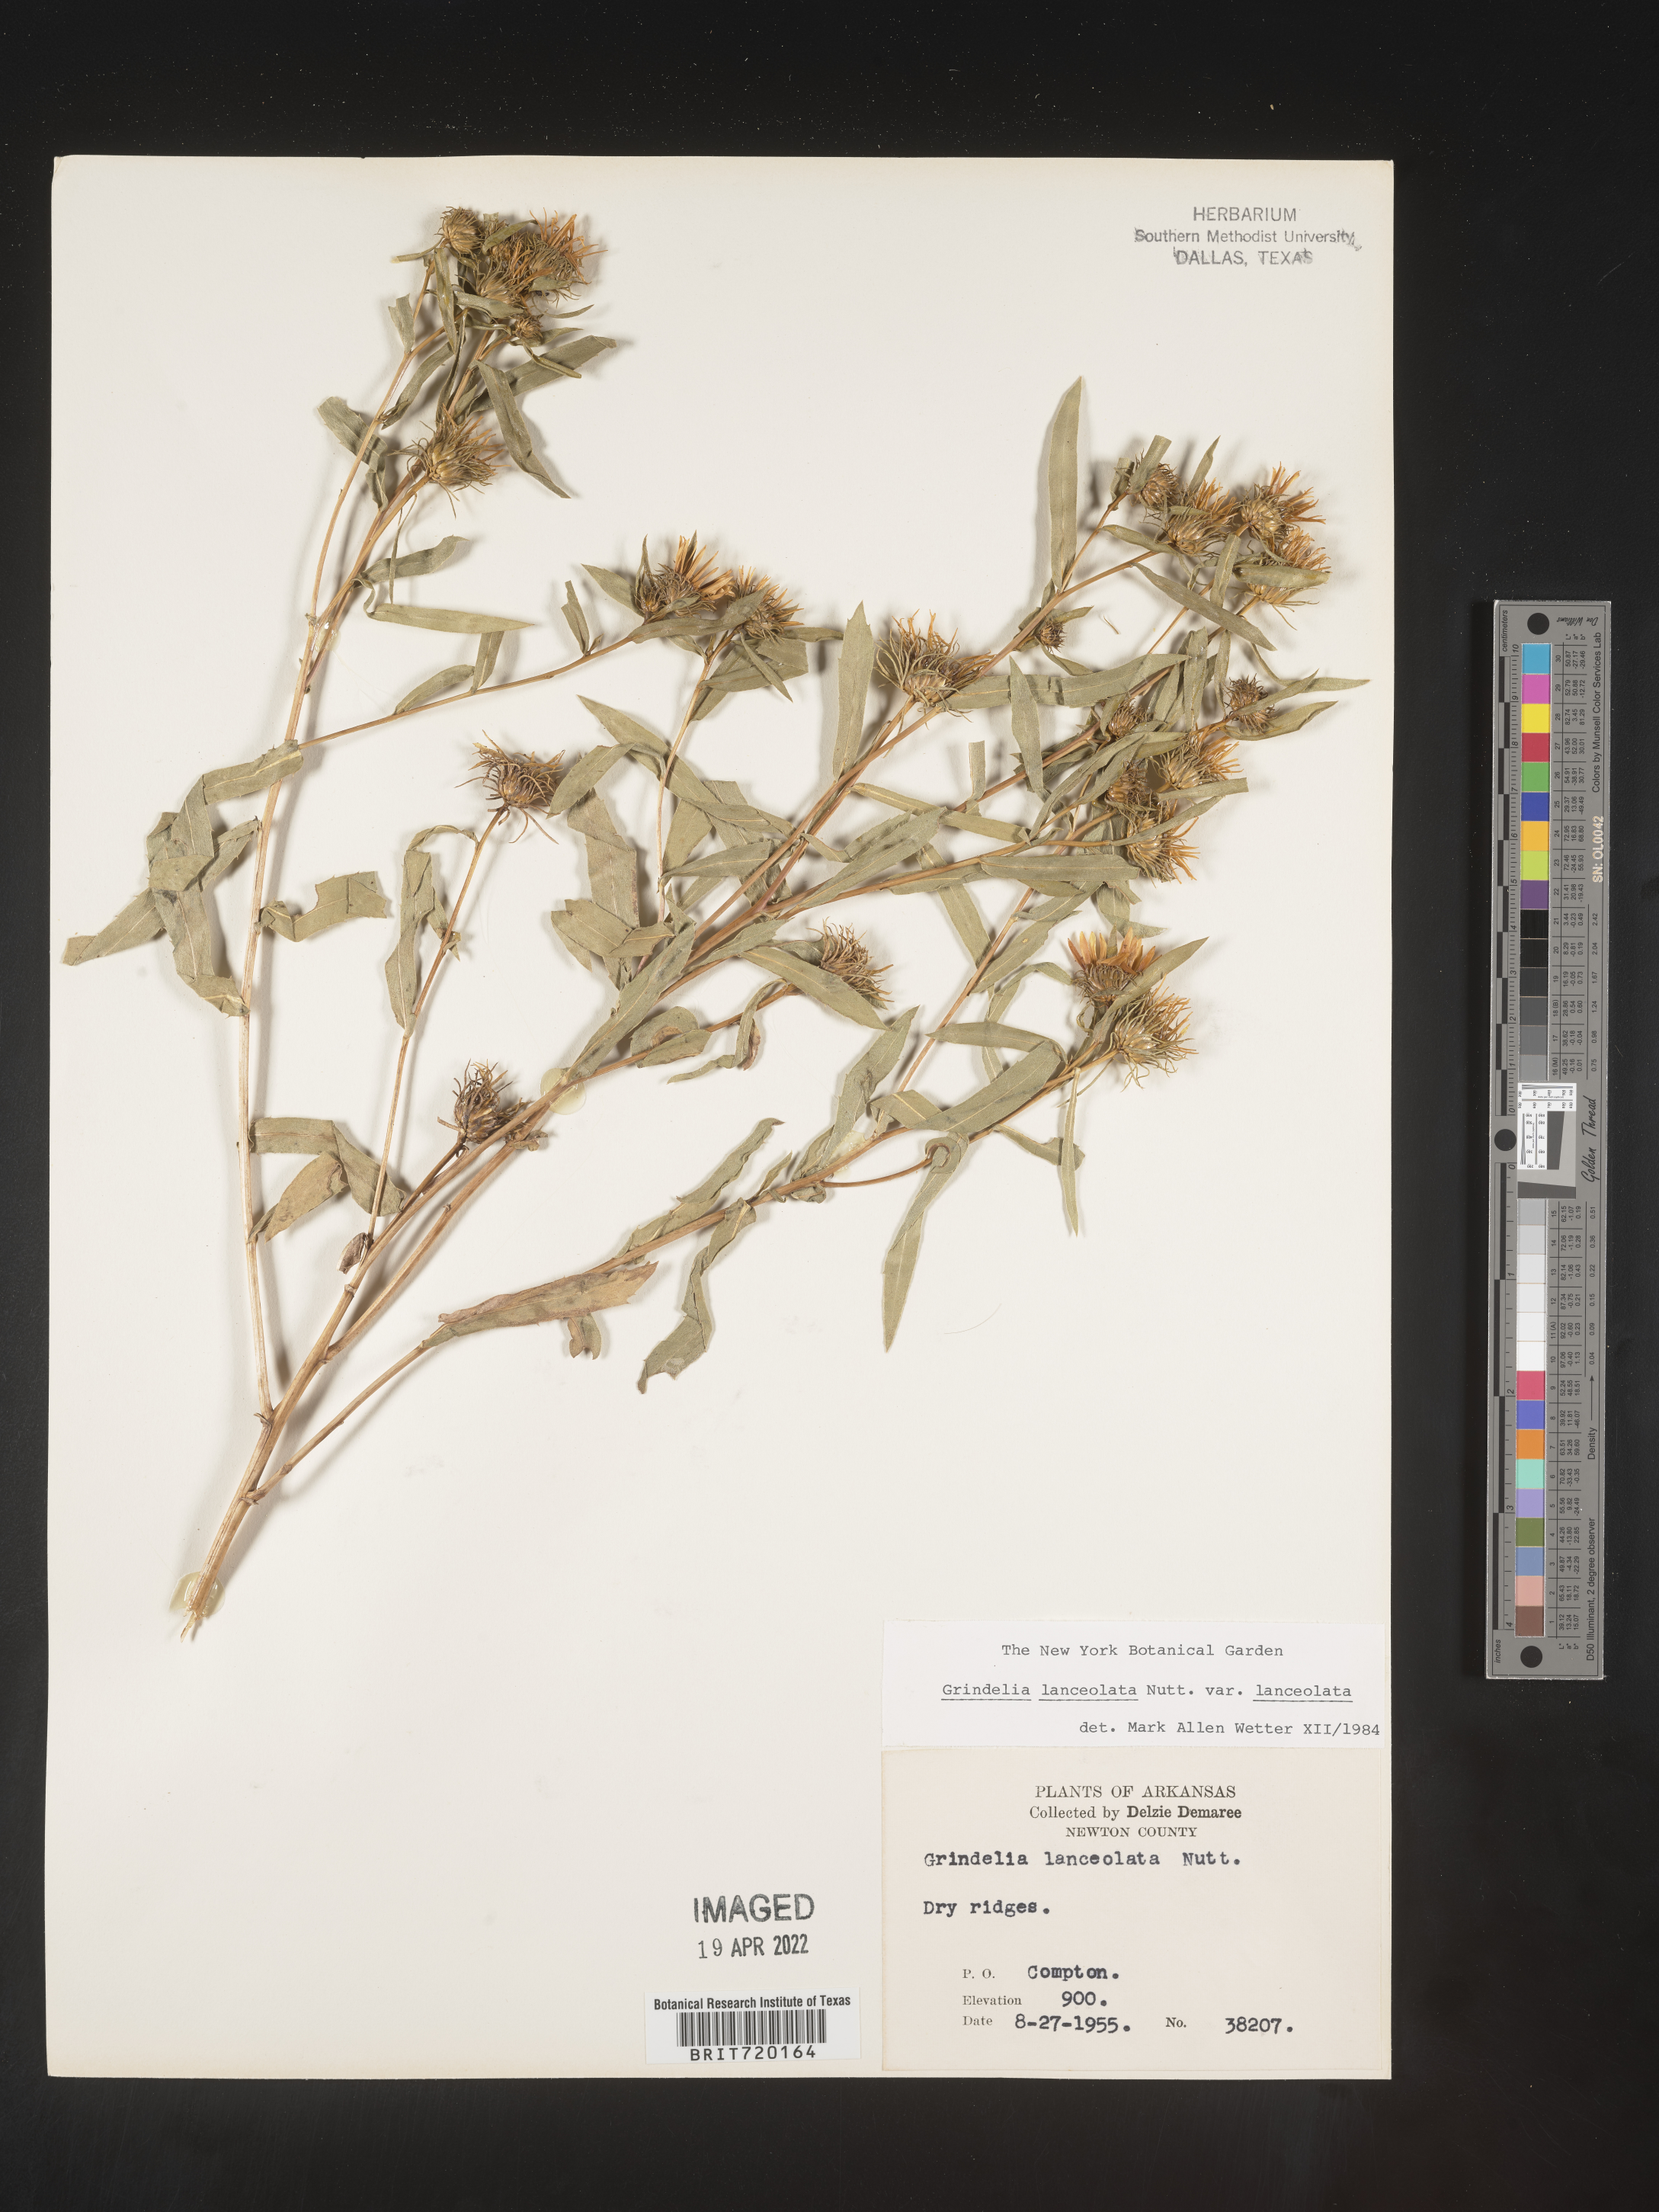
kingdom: Plantae
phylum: Tracheophyta
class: Magnoliopsida
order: Asterales
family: Asteraceae
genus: Grindelia
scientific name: Grindelia lanceolata
